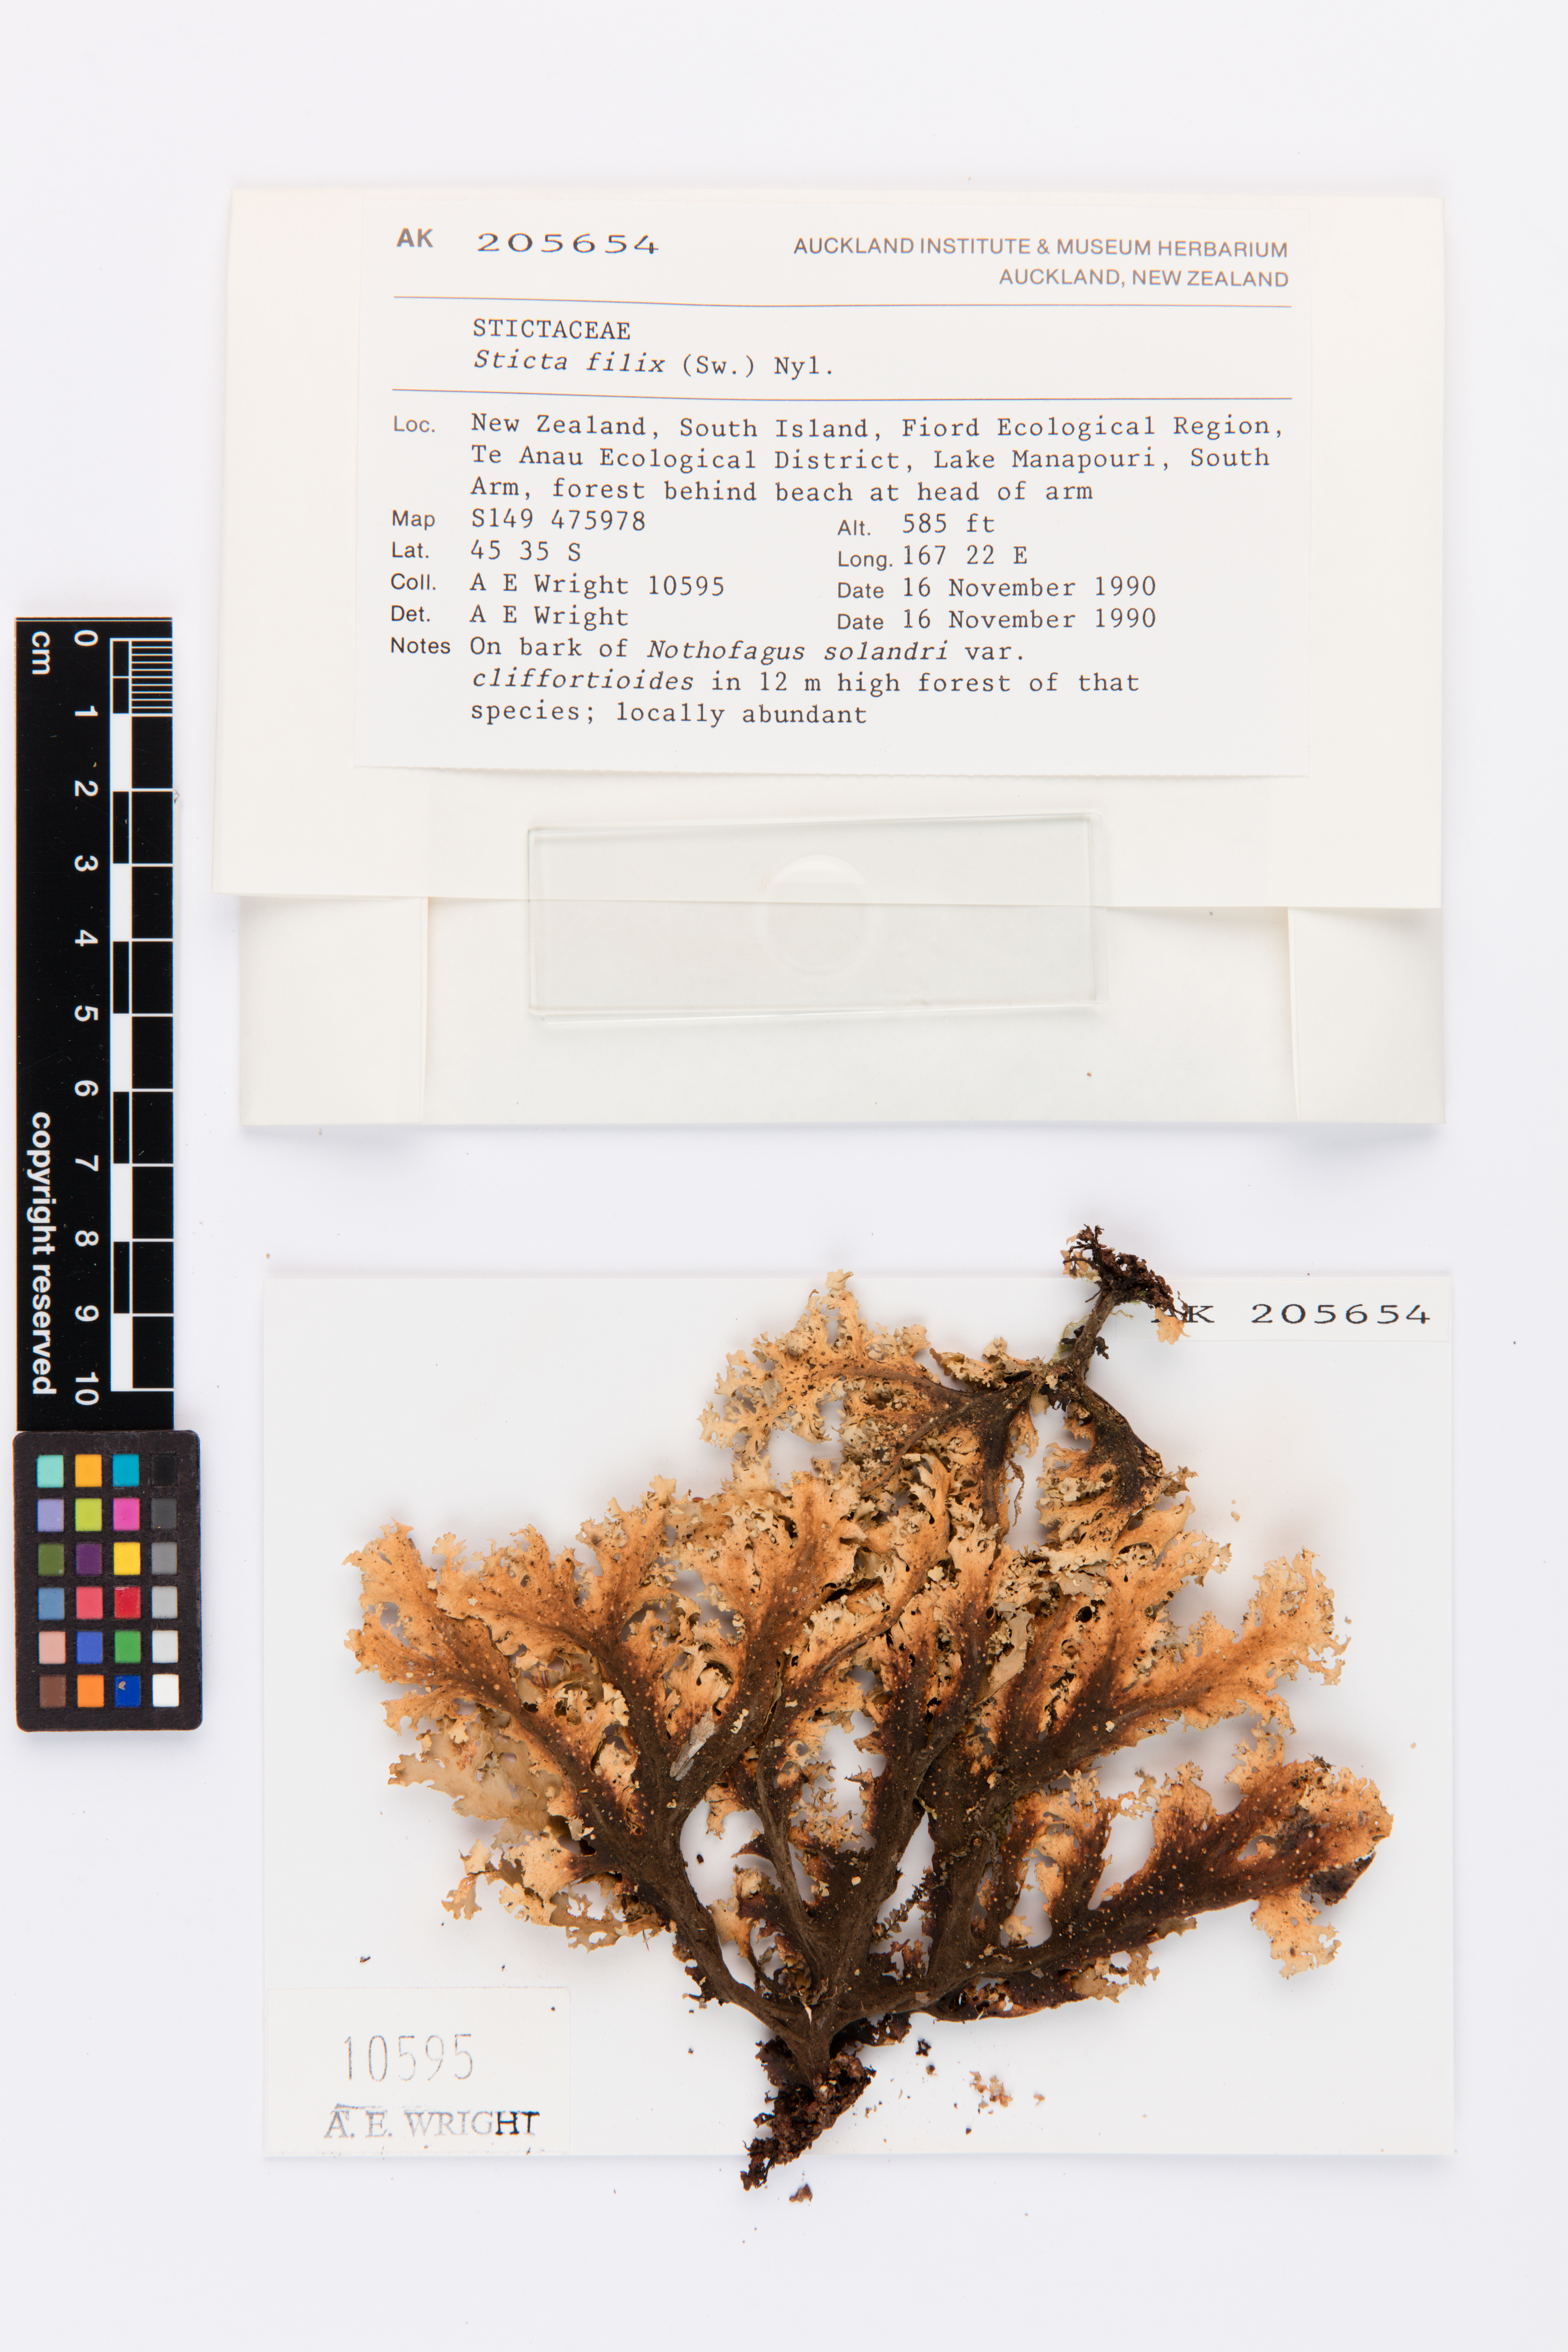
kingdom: Fungi
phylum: Ascomycota
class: Lecanoromycetes
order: Peltigerales
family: Lobariaceae
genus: Sticta
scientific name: Sticta filix
